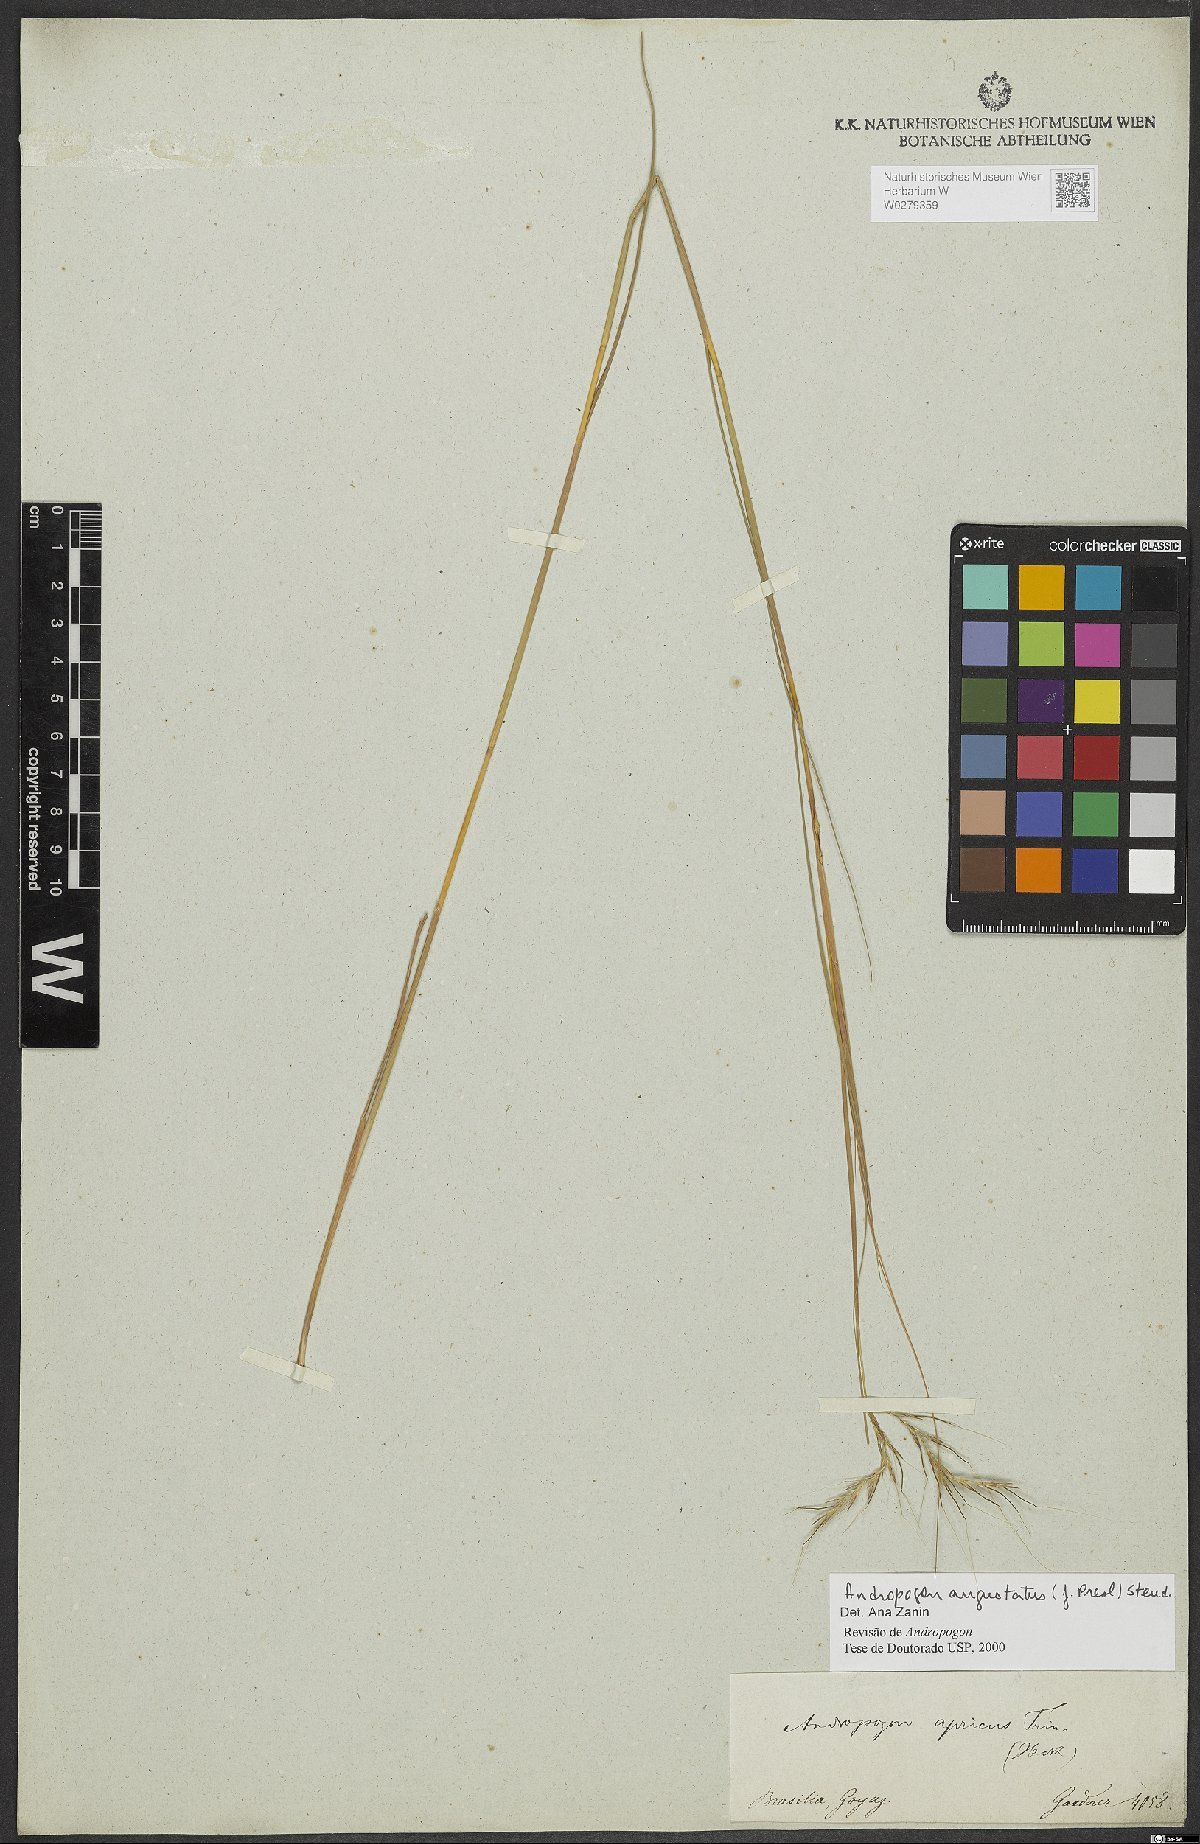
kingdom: Plantae
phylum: Tracheophyta
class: Liliopsida
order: Poales
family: Poaceae
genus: Andropogon
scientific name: Andropogon angustatus
